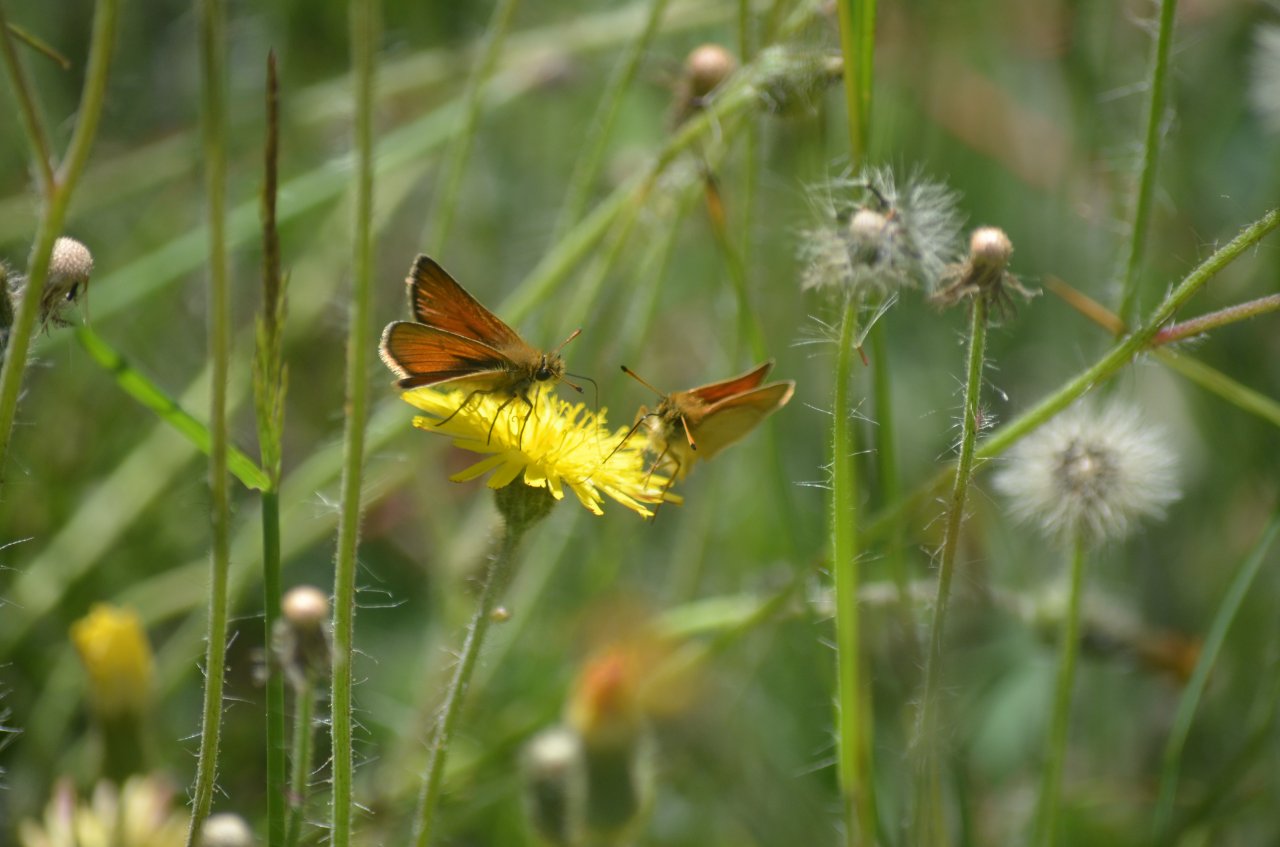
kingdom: Animalia
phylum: Arthropoda
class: Insecta
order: Lepidoptera
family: Hesperiidae
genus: Thymelicus
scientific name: Thymelicus lineola
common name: European Skipper
